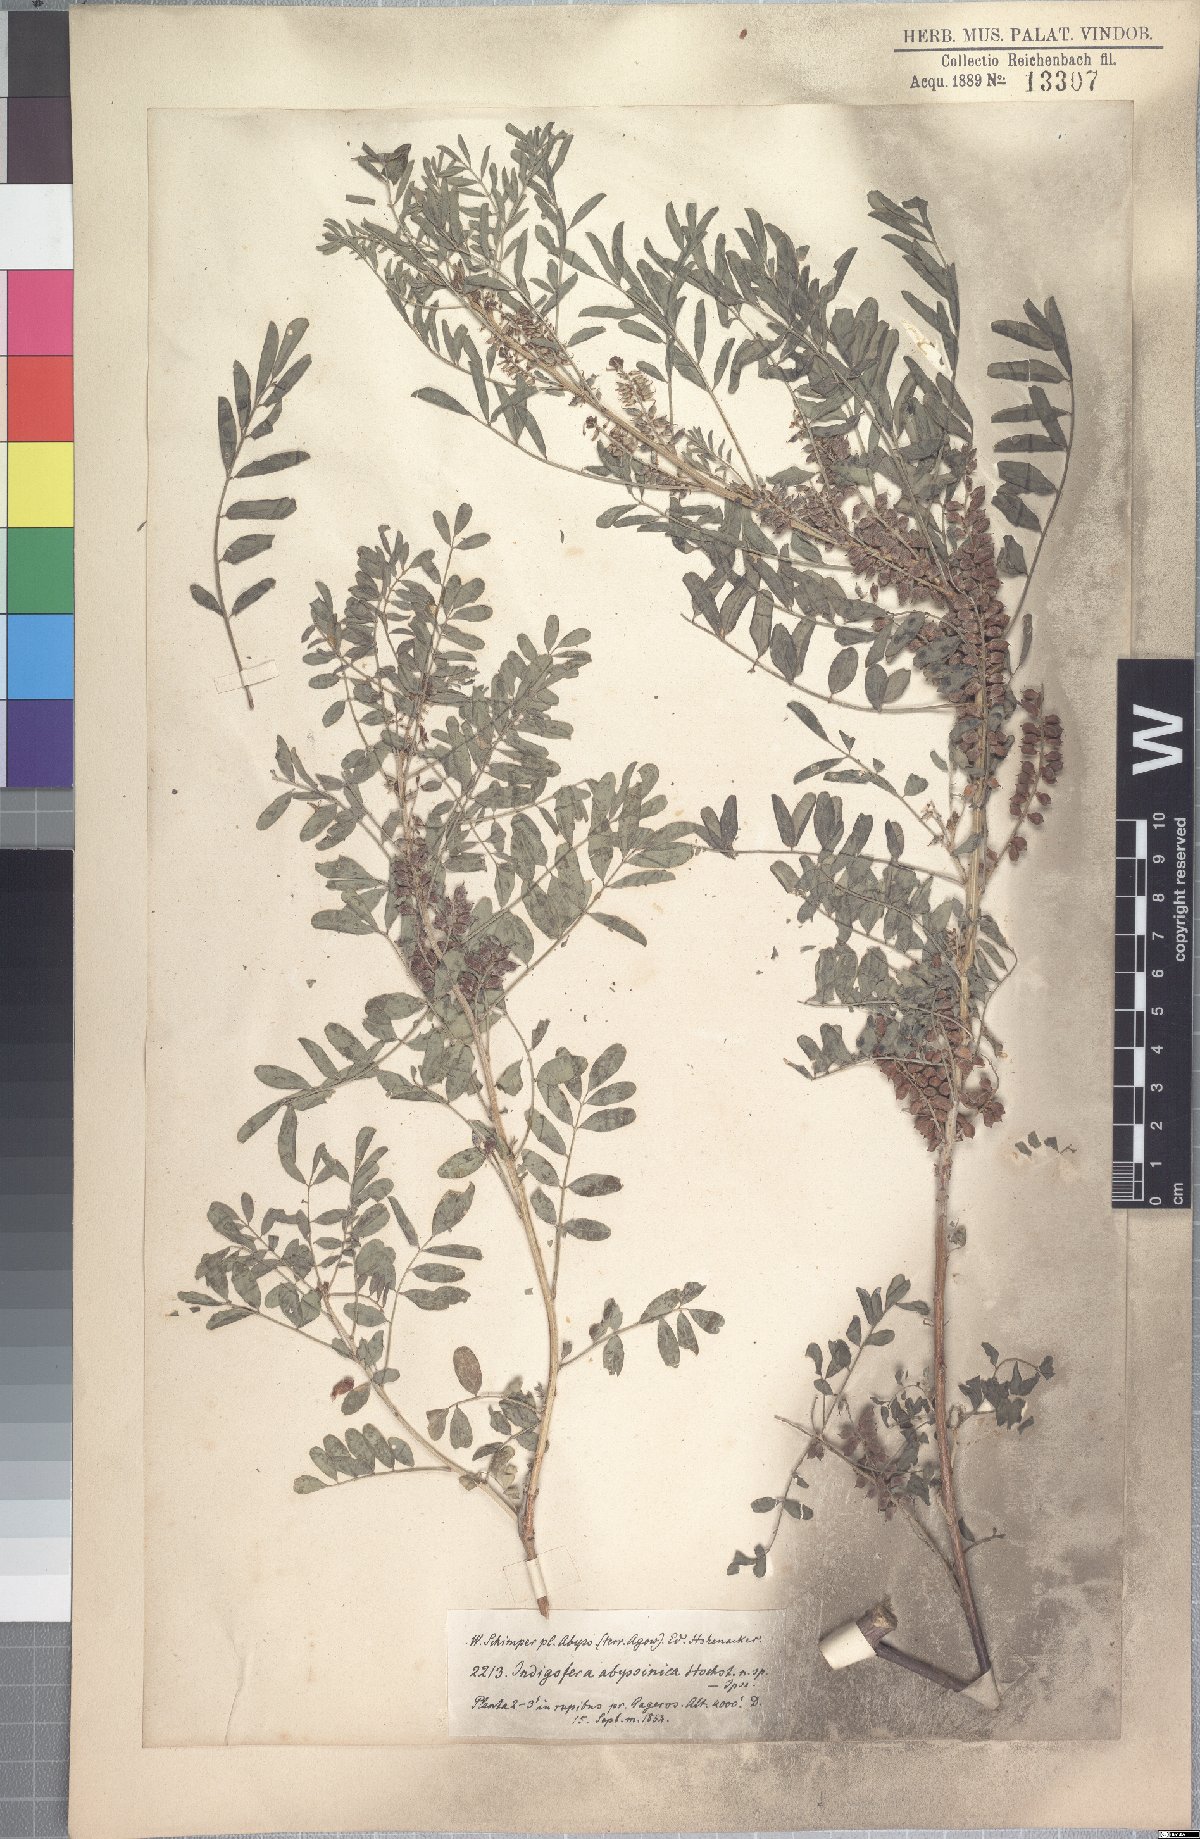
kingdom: Plantae
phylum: Tracheophyta
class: Magnoliopsida
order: Fabales
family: Fabaceae
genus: Indigofera
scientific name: Indigofera amorphoides
